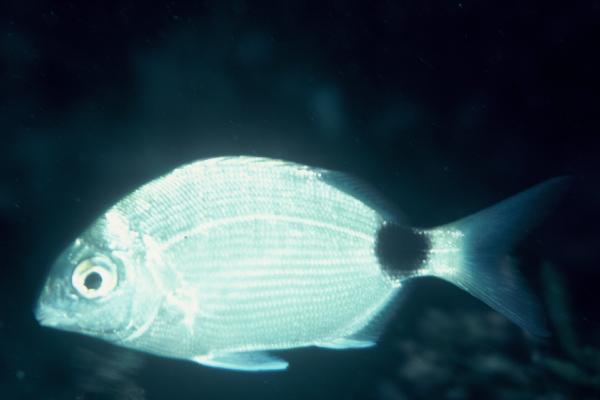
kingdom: Animalia
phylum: Chordata
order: Perciformes
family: Sparidae
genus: Diplodus
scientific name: Diplodus capensis
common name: Blacktail
